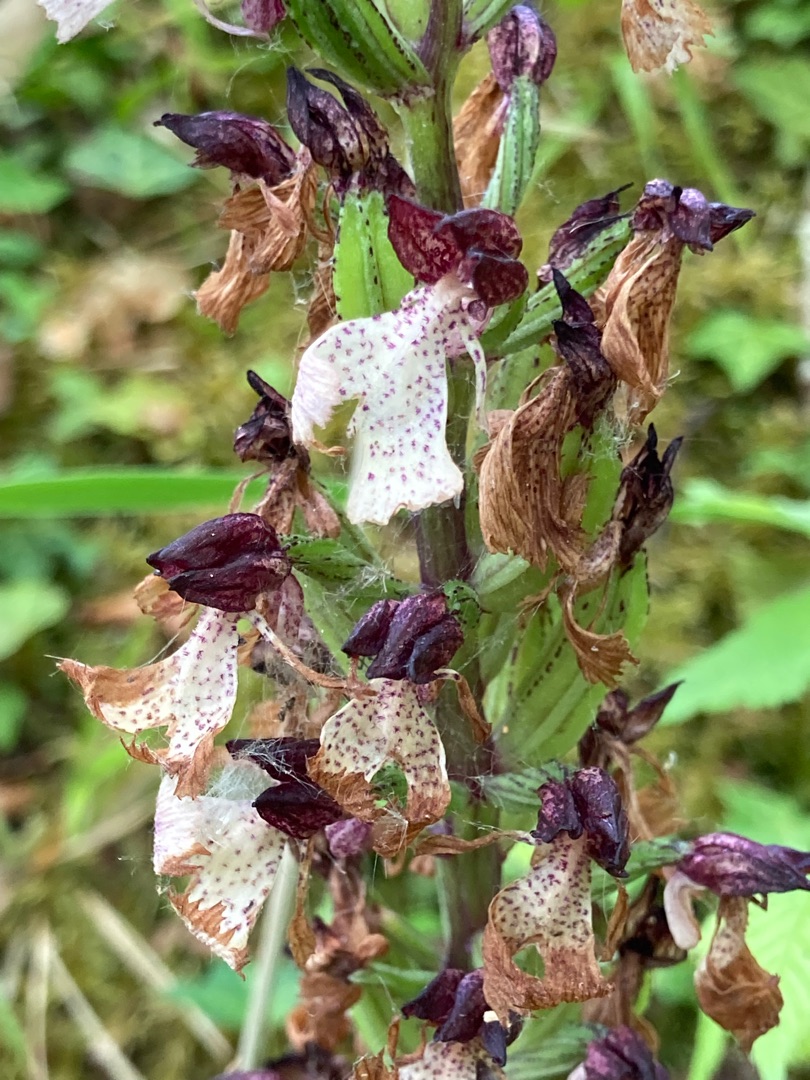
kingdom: Plantae
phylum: Tracheophyta
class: Liliopsida
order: Asparagales
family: Orchidaceae
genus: Orchis
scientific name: Orchis purpurea
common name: Stor gøgeurt
